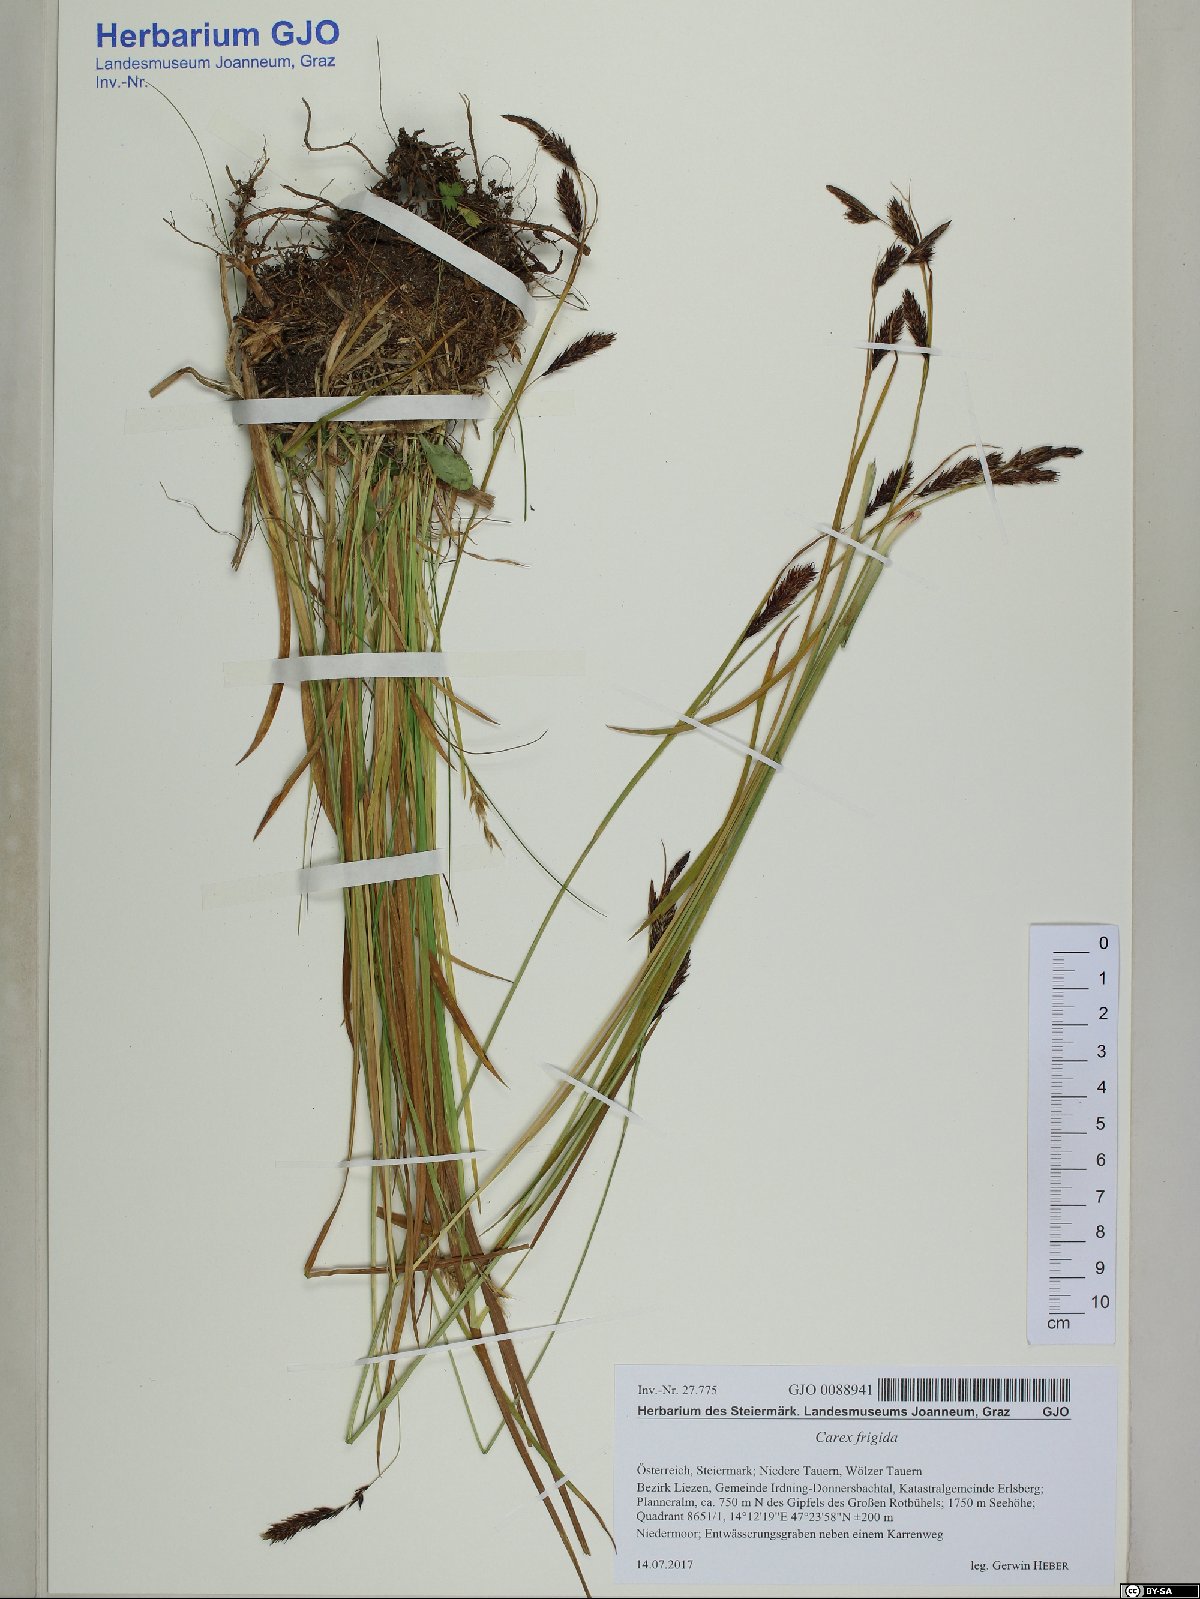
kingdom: Plantae
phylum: Tracheophyta
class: Liliopsida
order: Poales
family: Cyperaceae
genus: Carex
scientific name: Carex frigida
